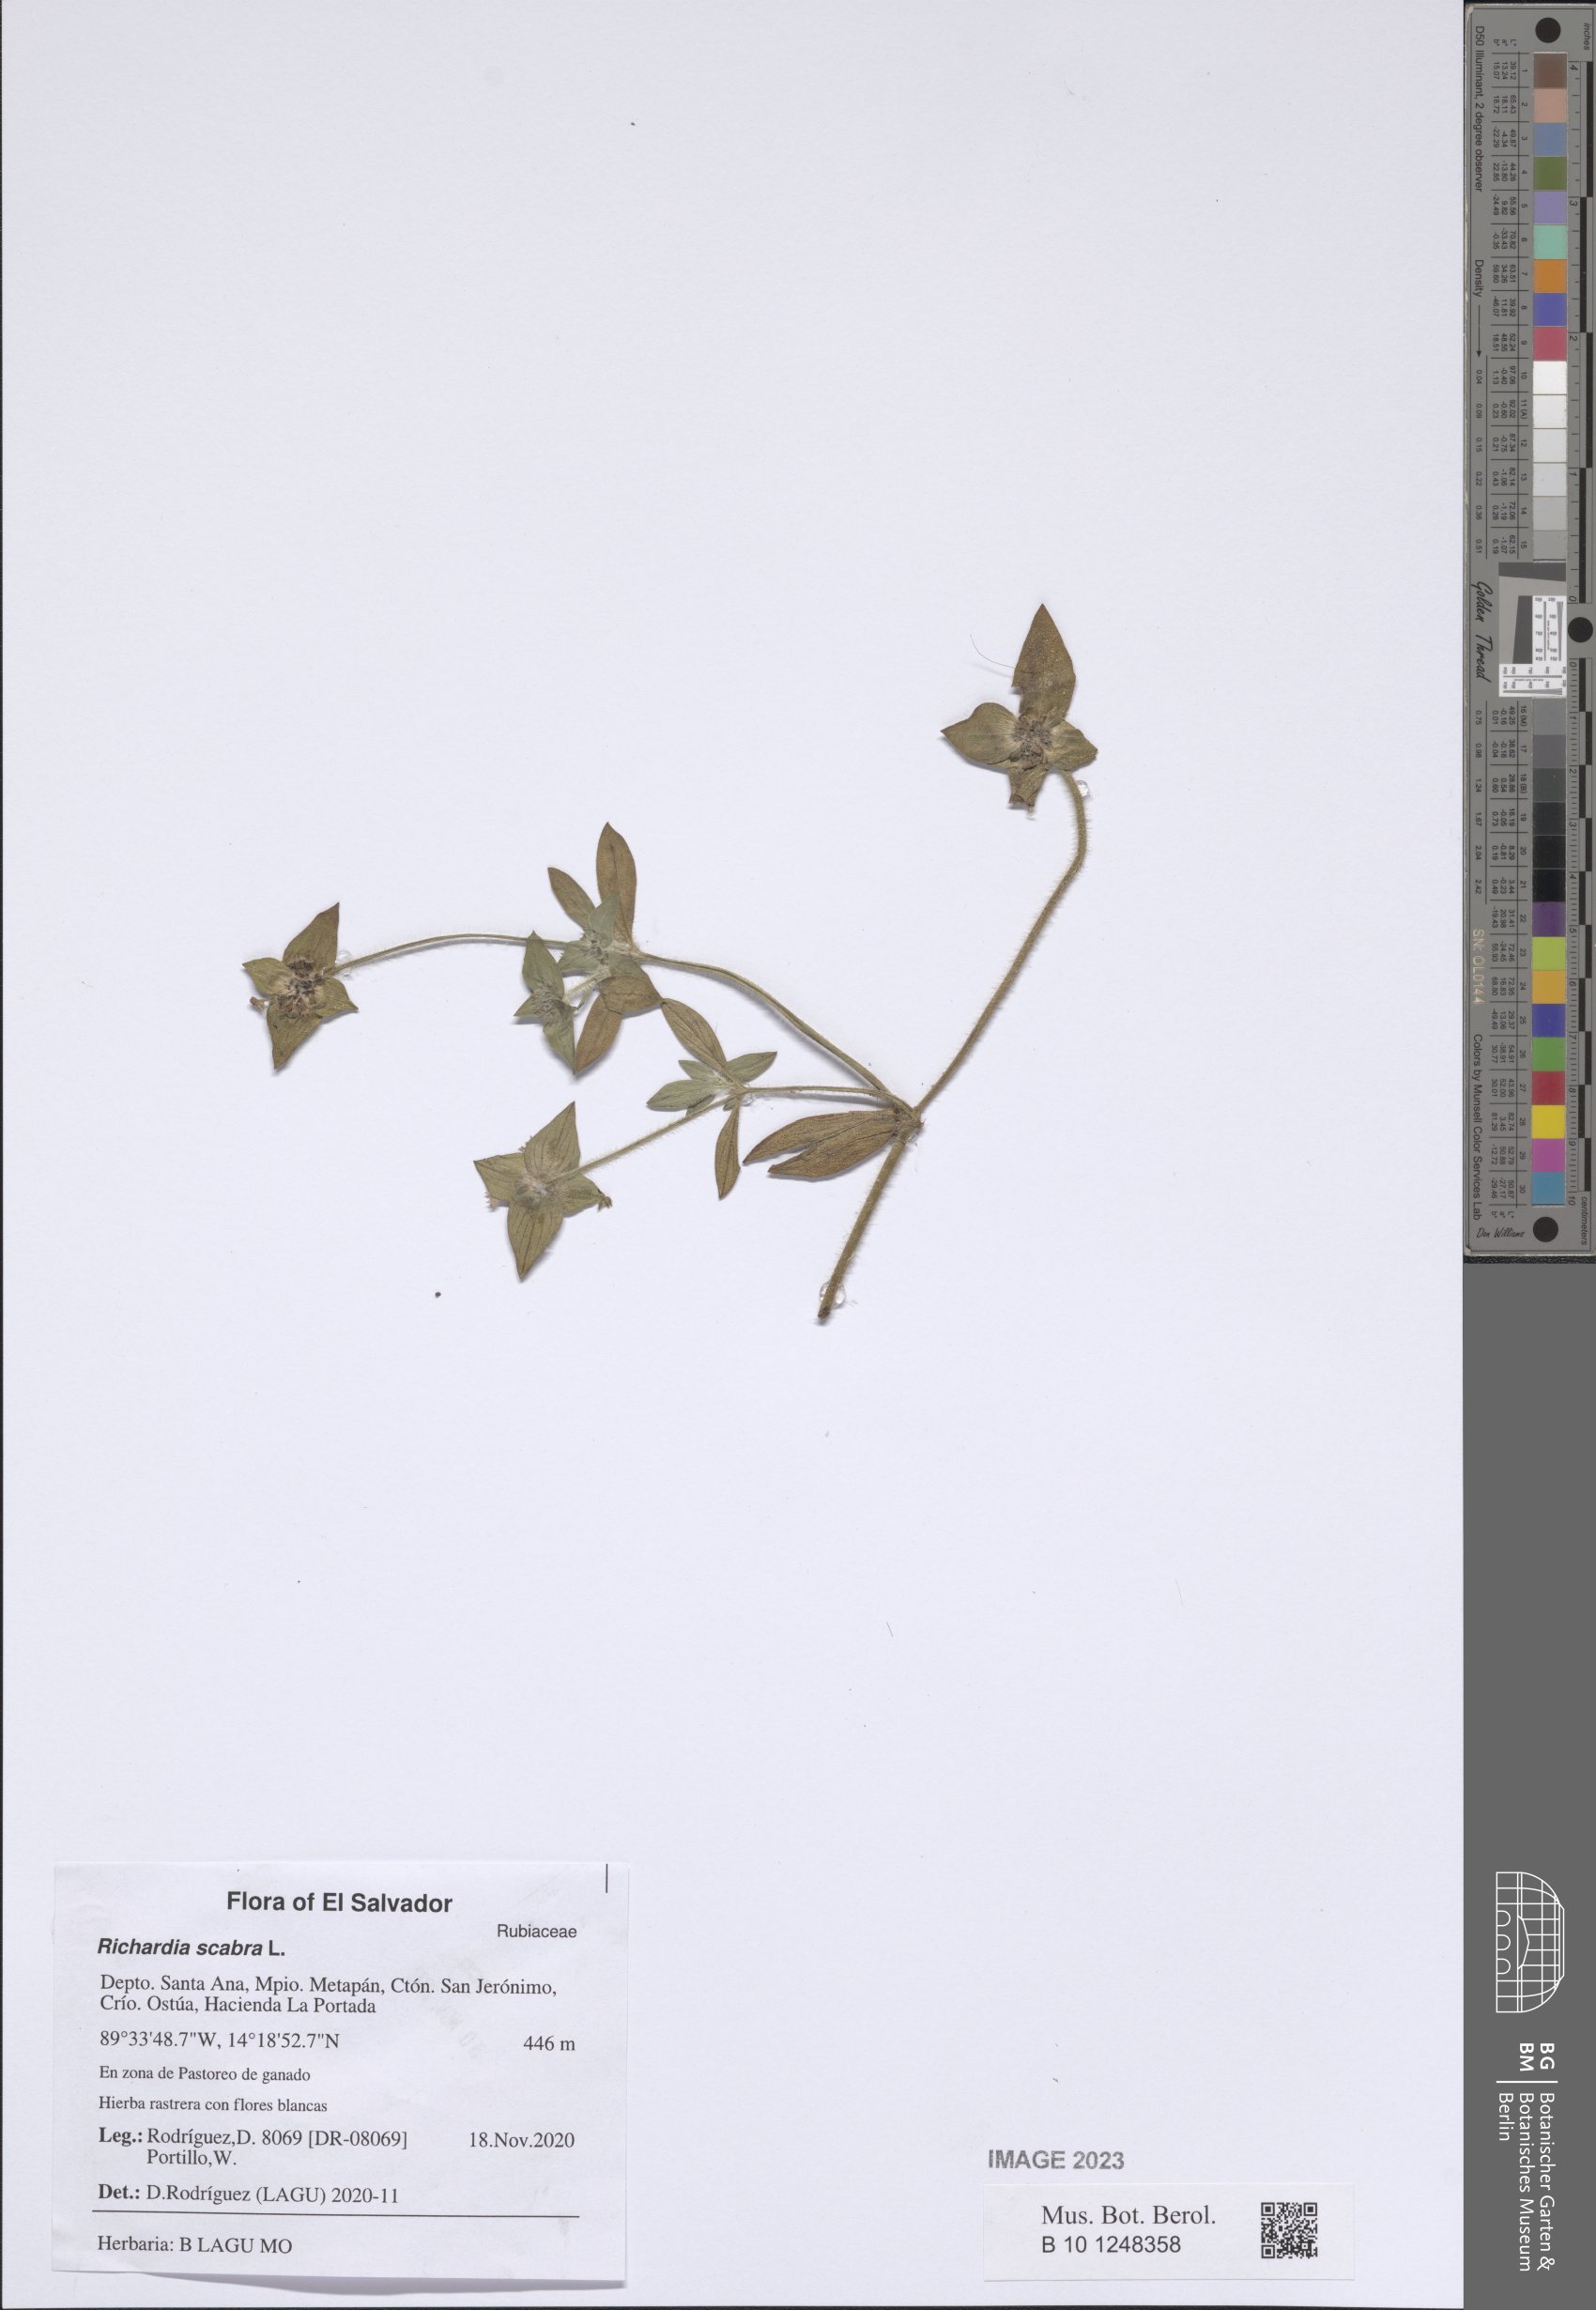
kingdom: Plantae
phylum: Tracheophyta
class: Magnoliopsida
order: Gentianales
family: Rubiaceae
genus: Richardia
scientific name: Richardia scabra
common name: Rough mexican clover
